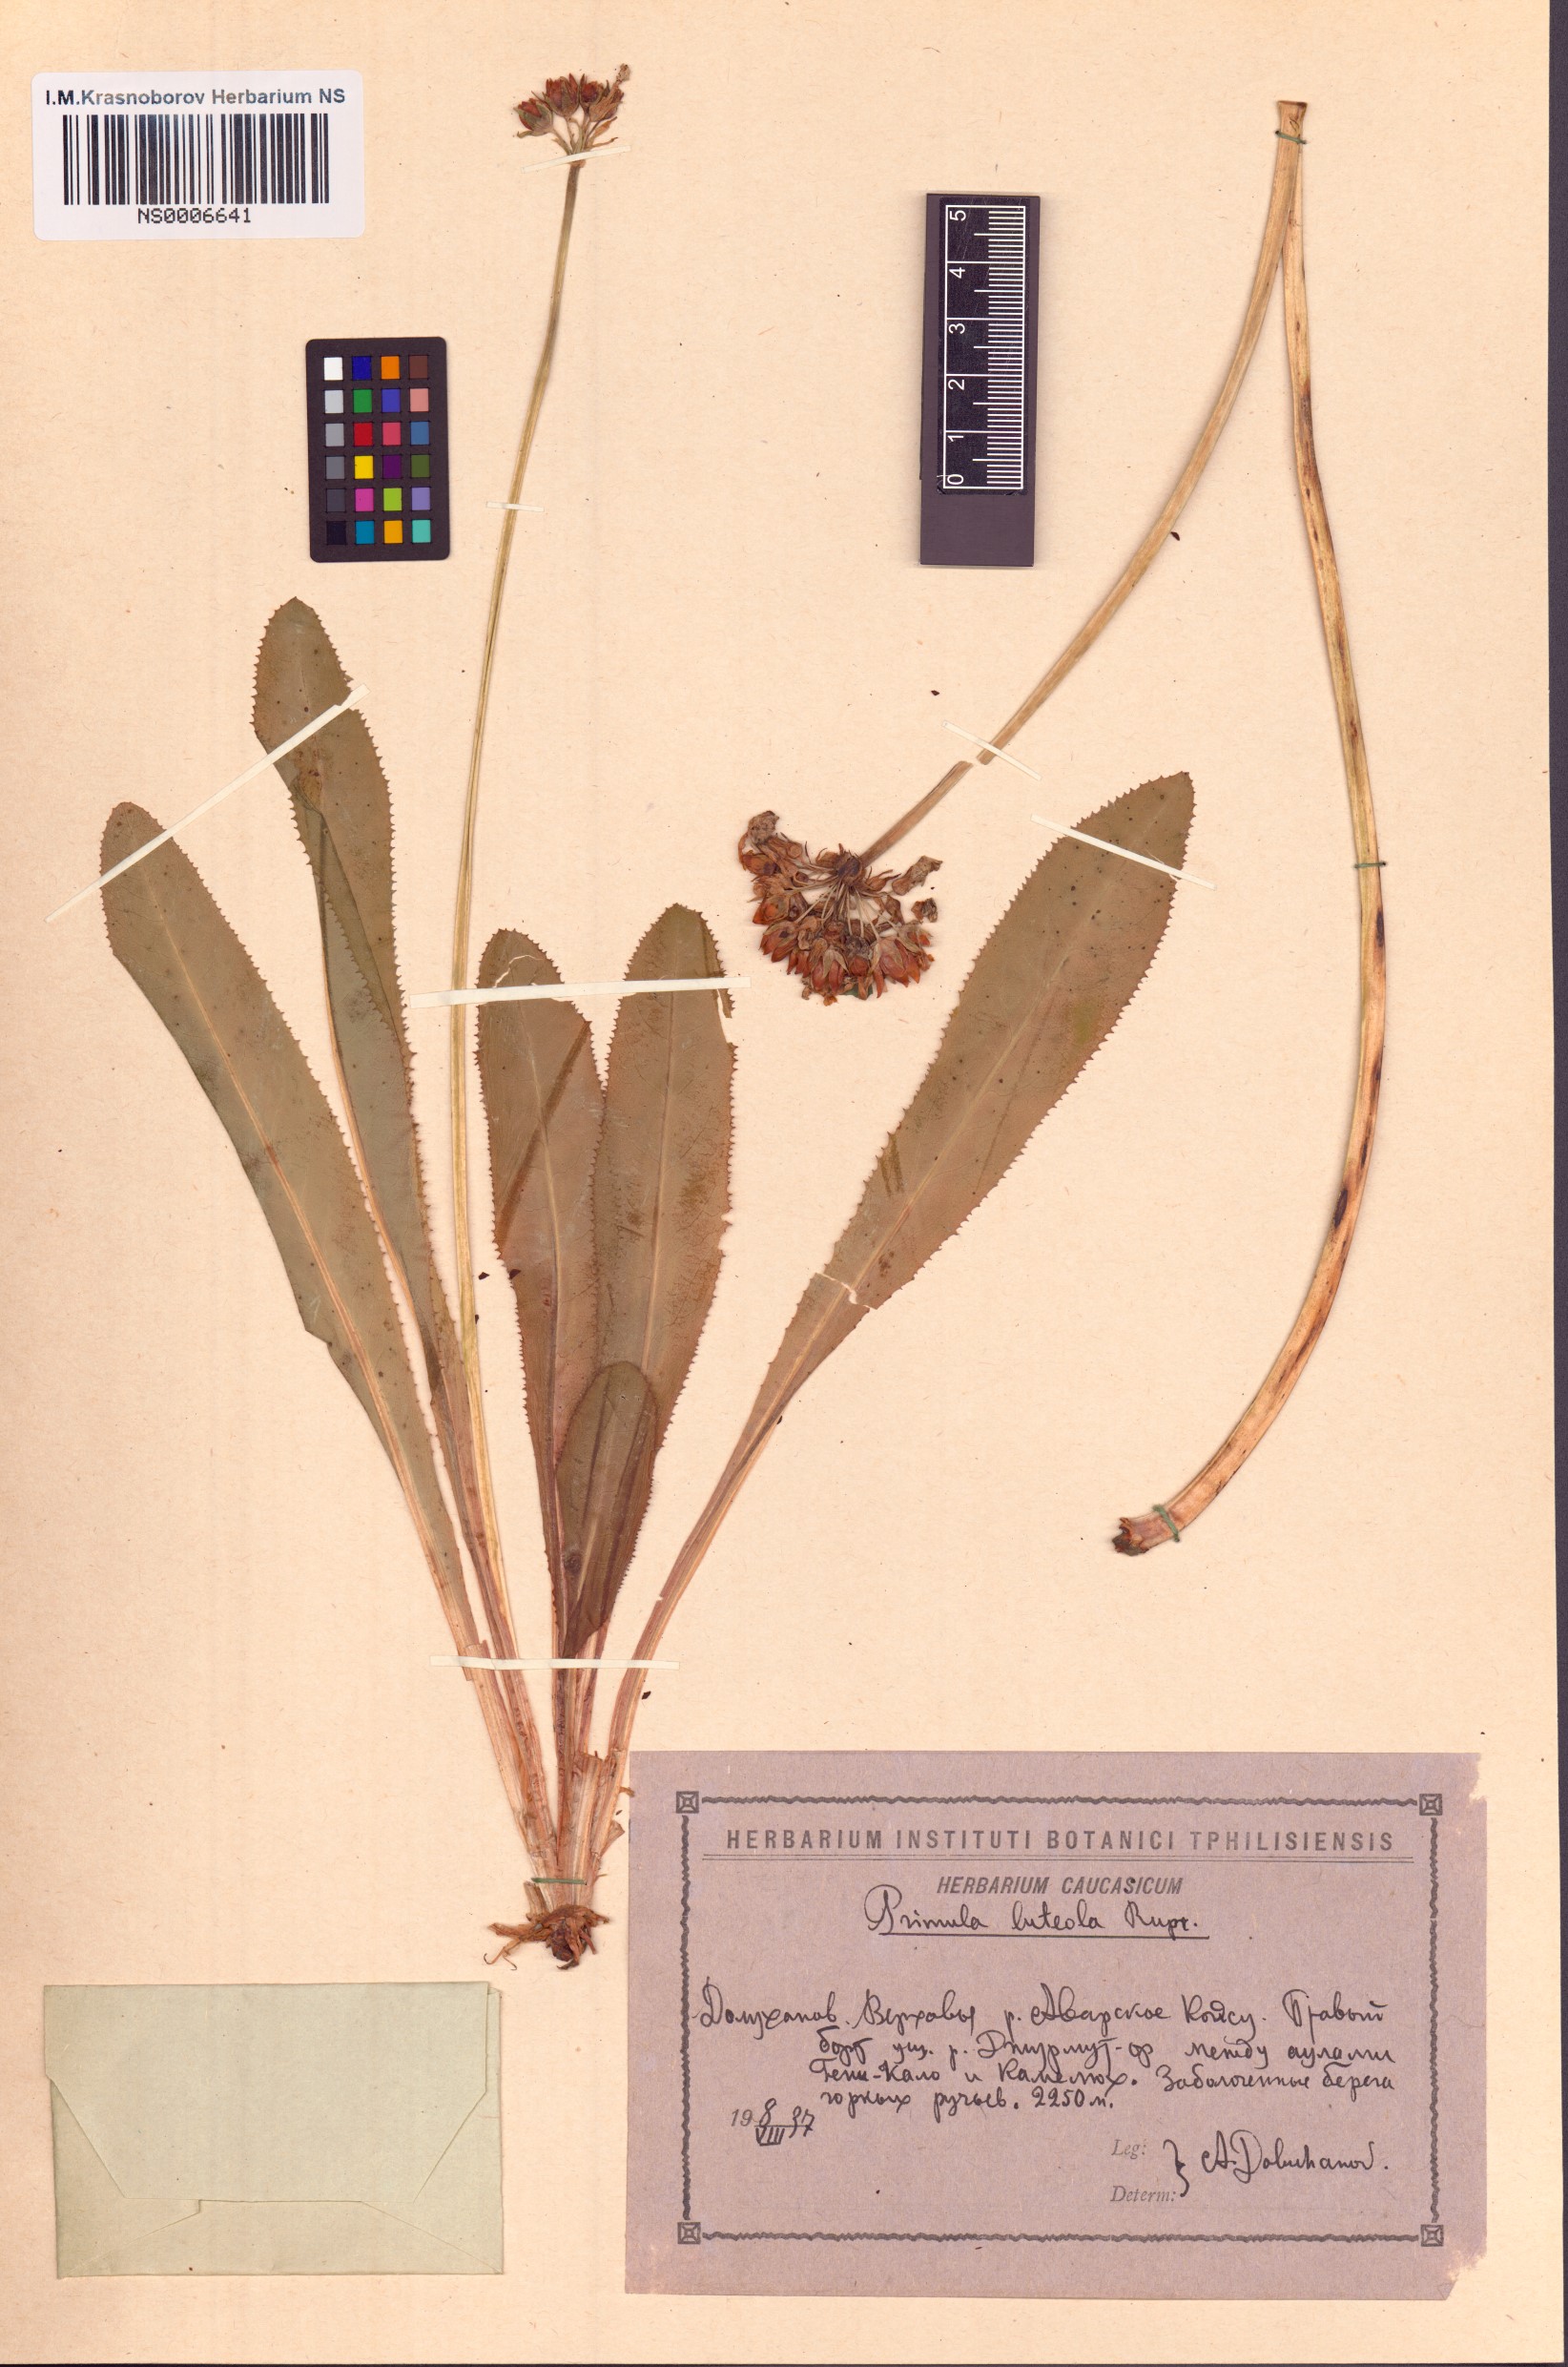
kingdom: Plantae
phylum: Tracheophyta
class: Magnoliopsida
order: Ericales
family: Primulaceae
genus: Primula
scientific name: Primula luteola
